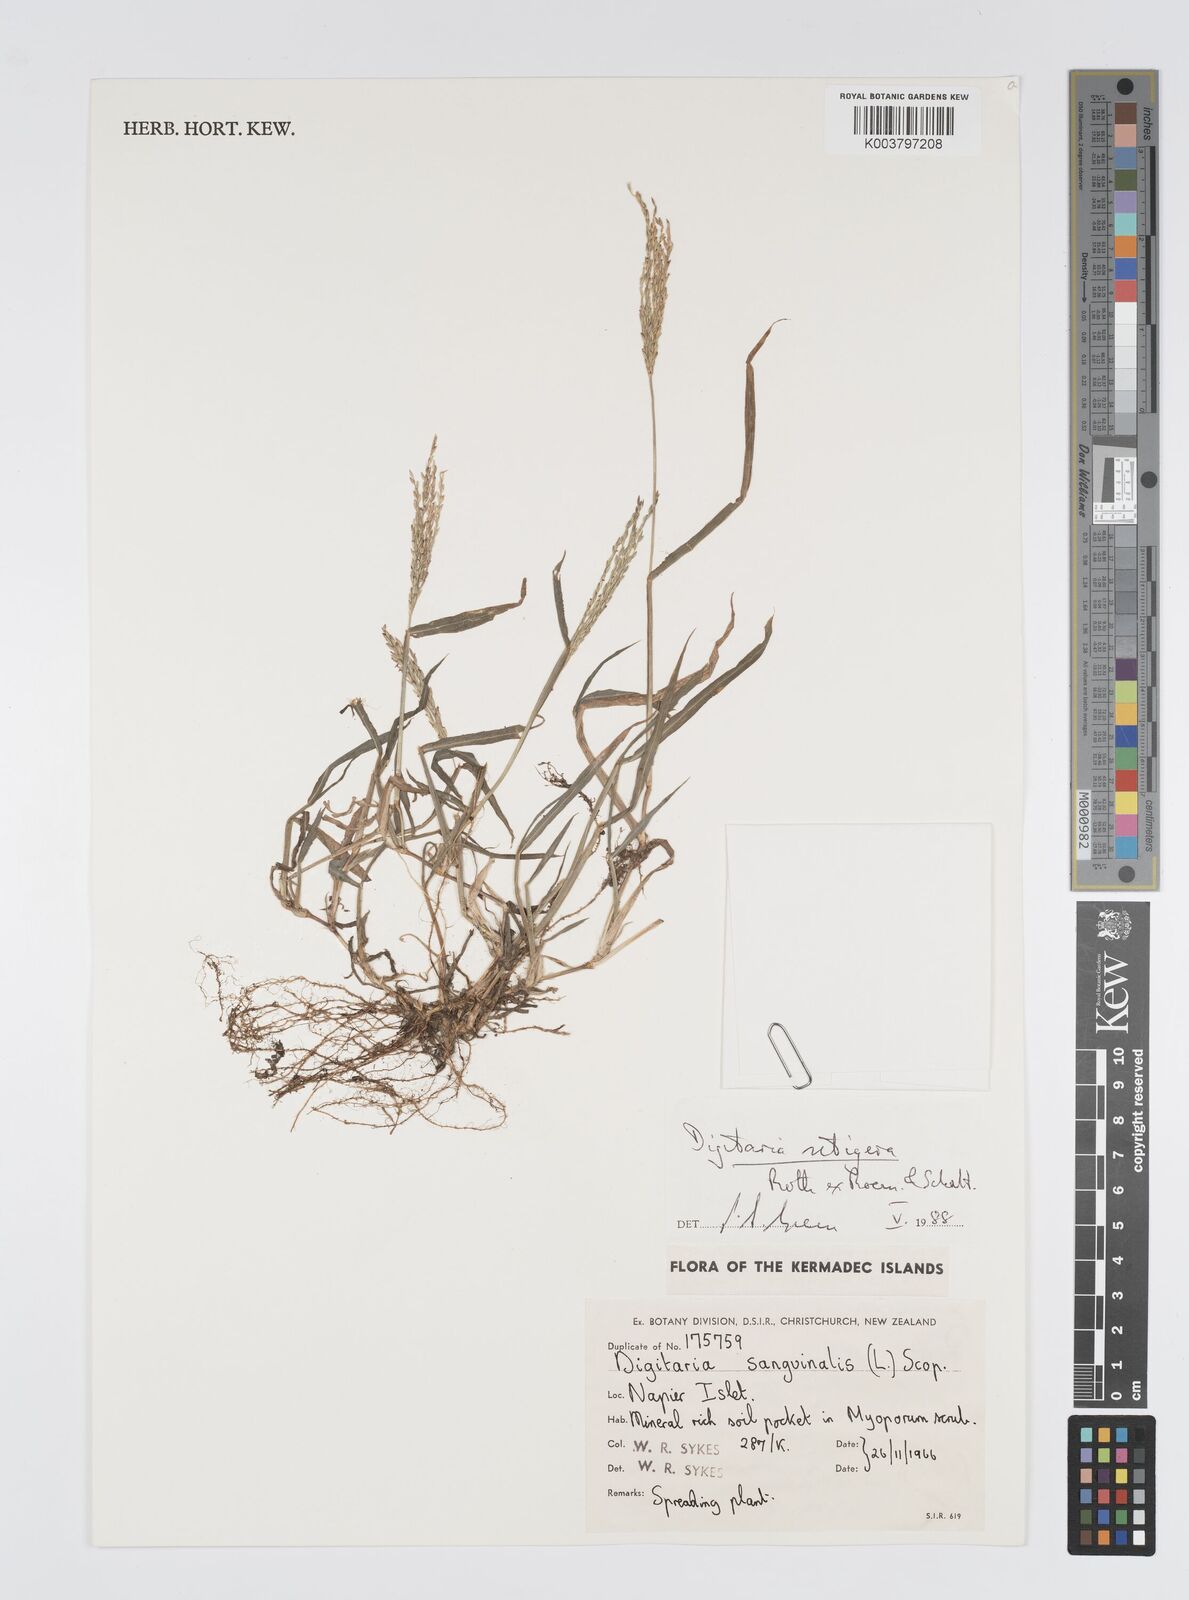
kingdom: Plantae
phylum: Tracheophyta
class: Liliopsida
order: Poales
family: Poaceae
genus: Digitaria
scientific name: Digitaria setigera
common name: East indian crabgrass
